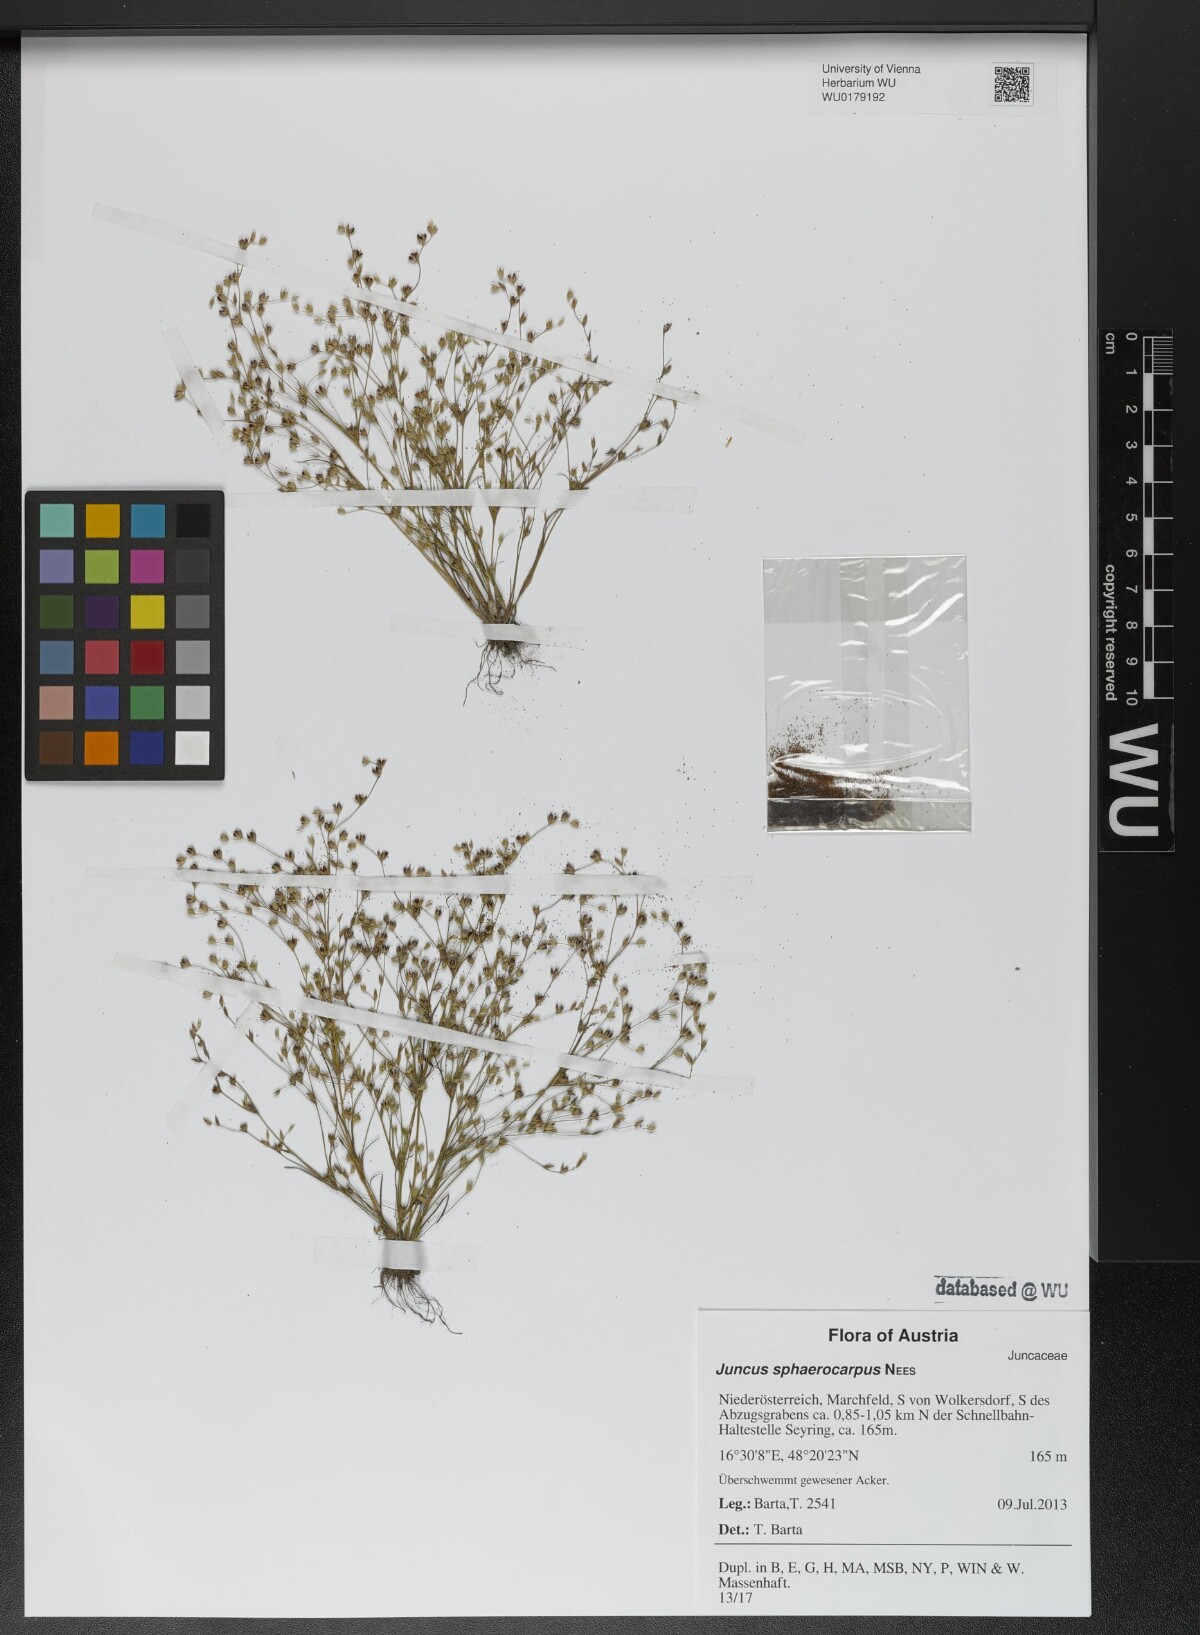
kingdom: Plantae
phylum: Tracheophyta
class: Liliopsida
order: Poales
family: Juncaceae
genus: Juncus
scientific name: Juncus sphaerocarpus
